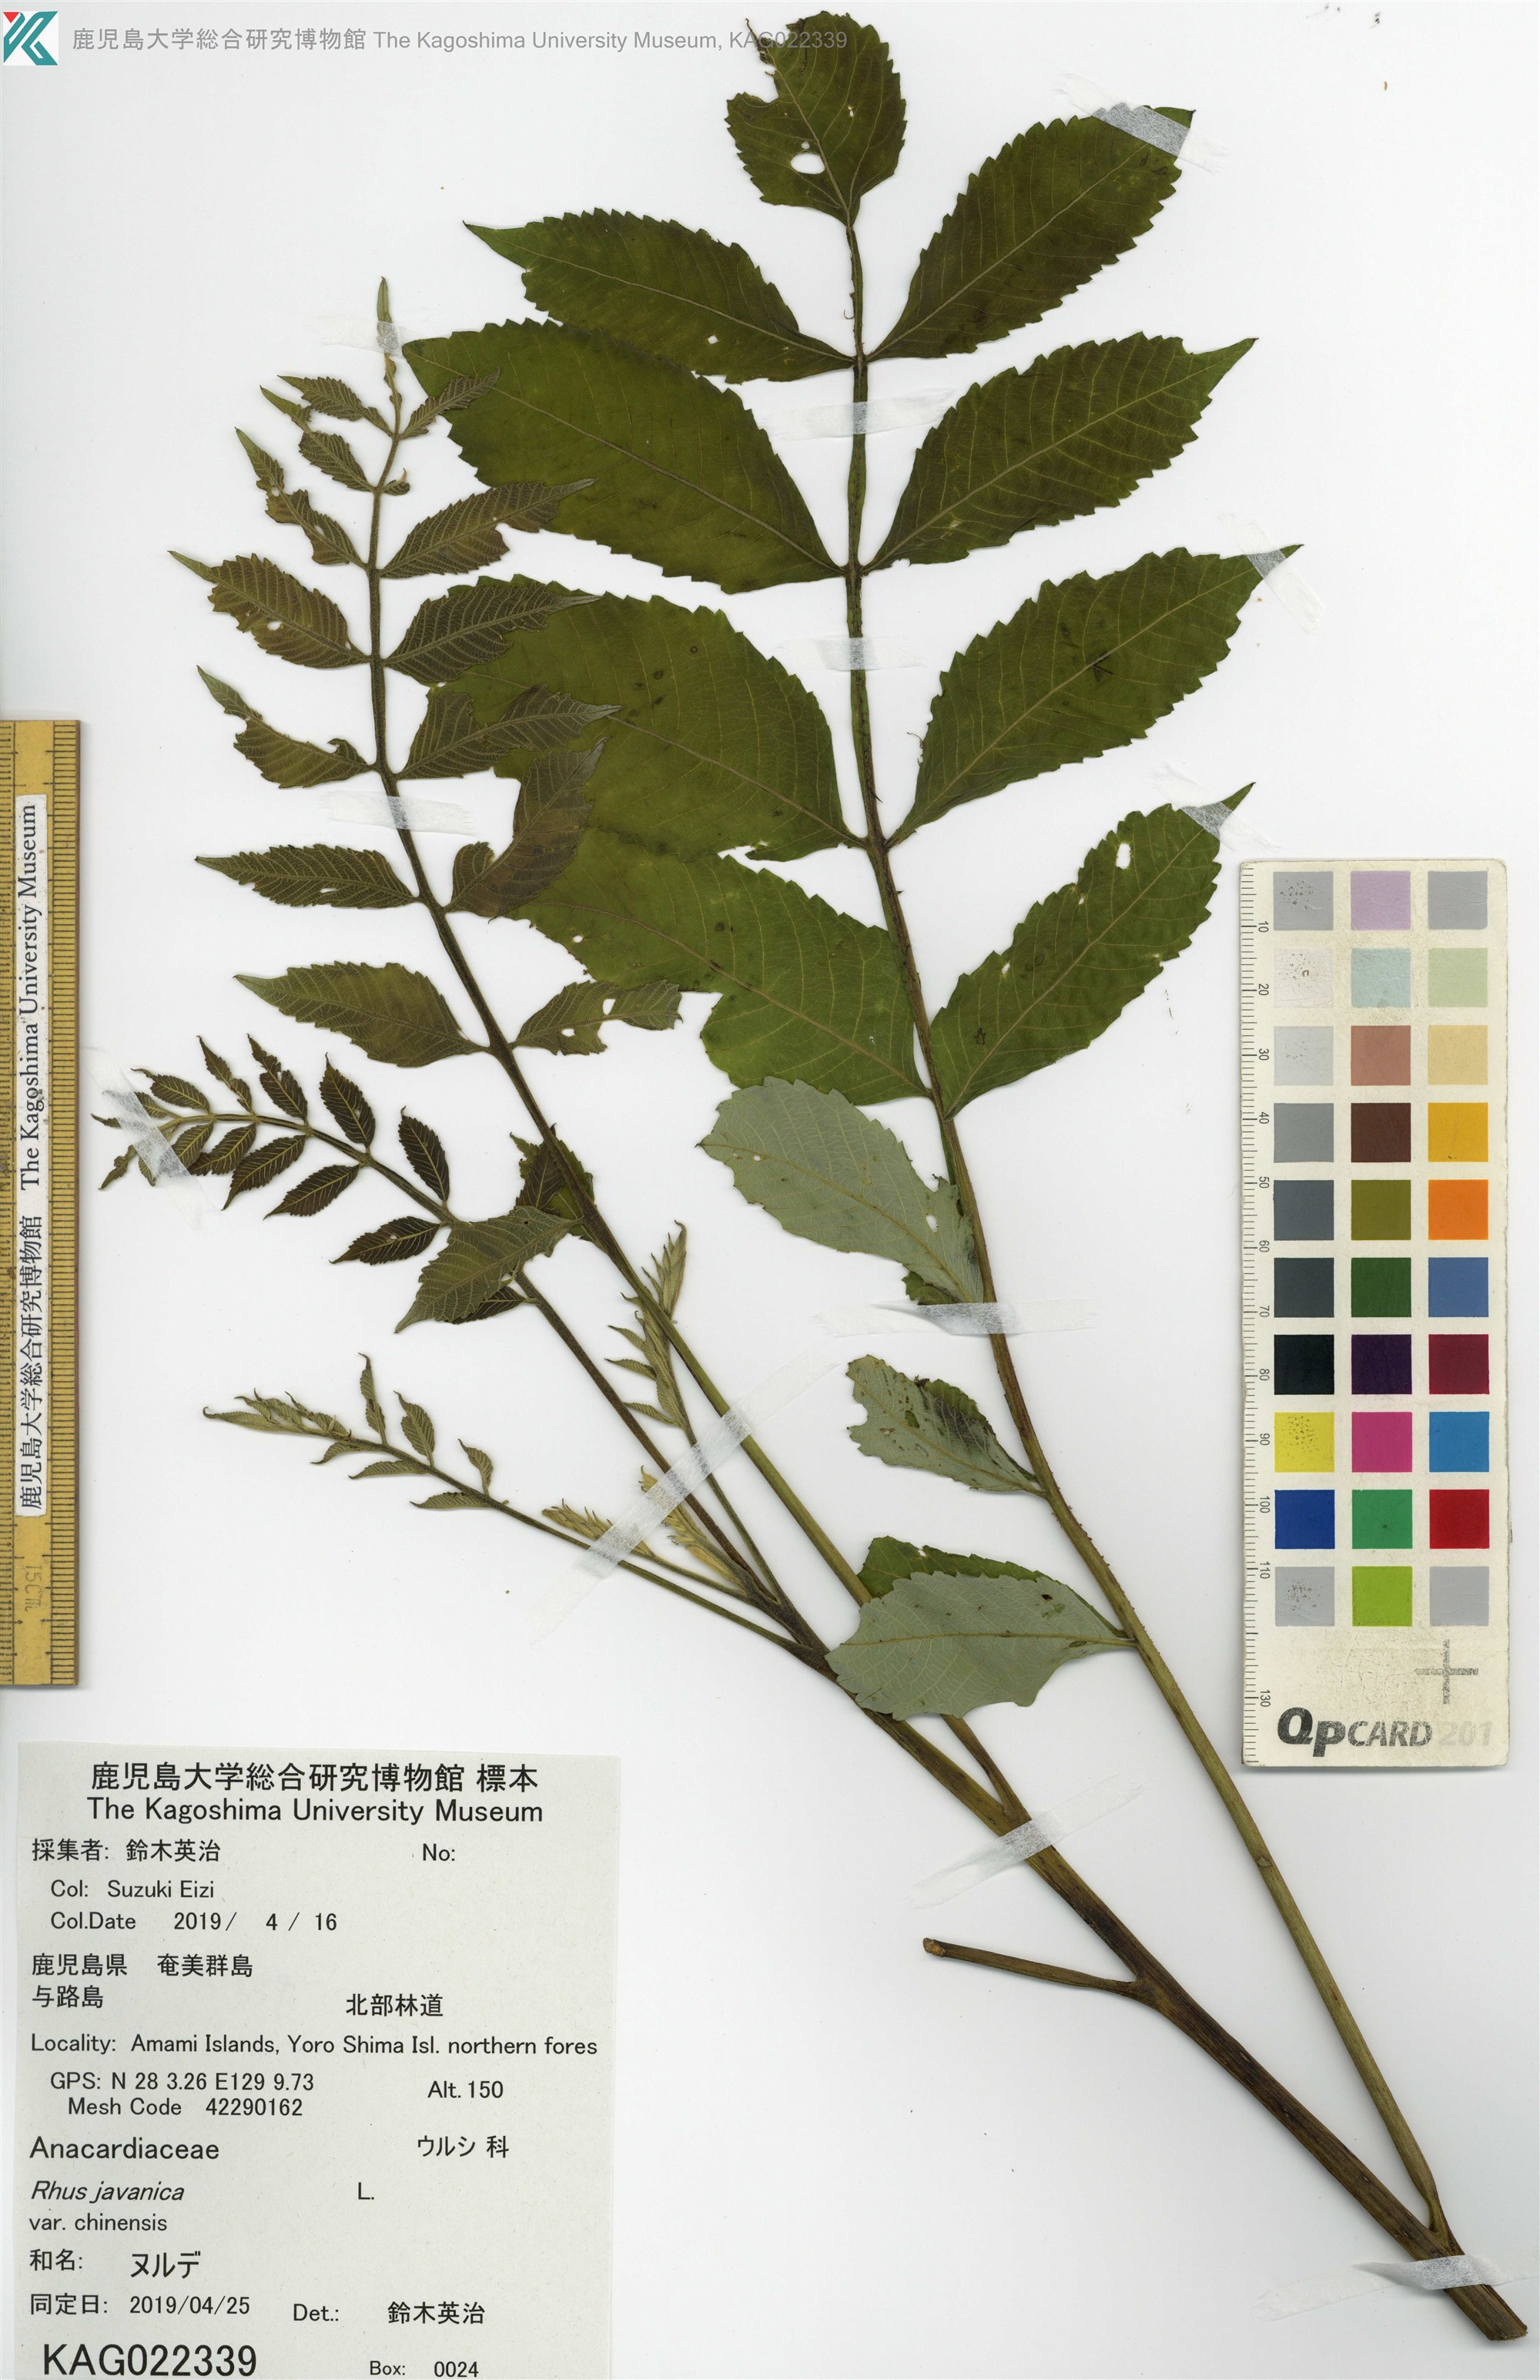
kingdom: Plantae
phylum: Tracheophyta
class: Magnoliopsida
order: Sapindales
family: Simaroubaceae
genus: Brucea
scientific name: Brucea javanica
